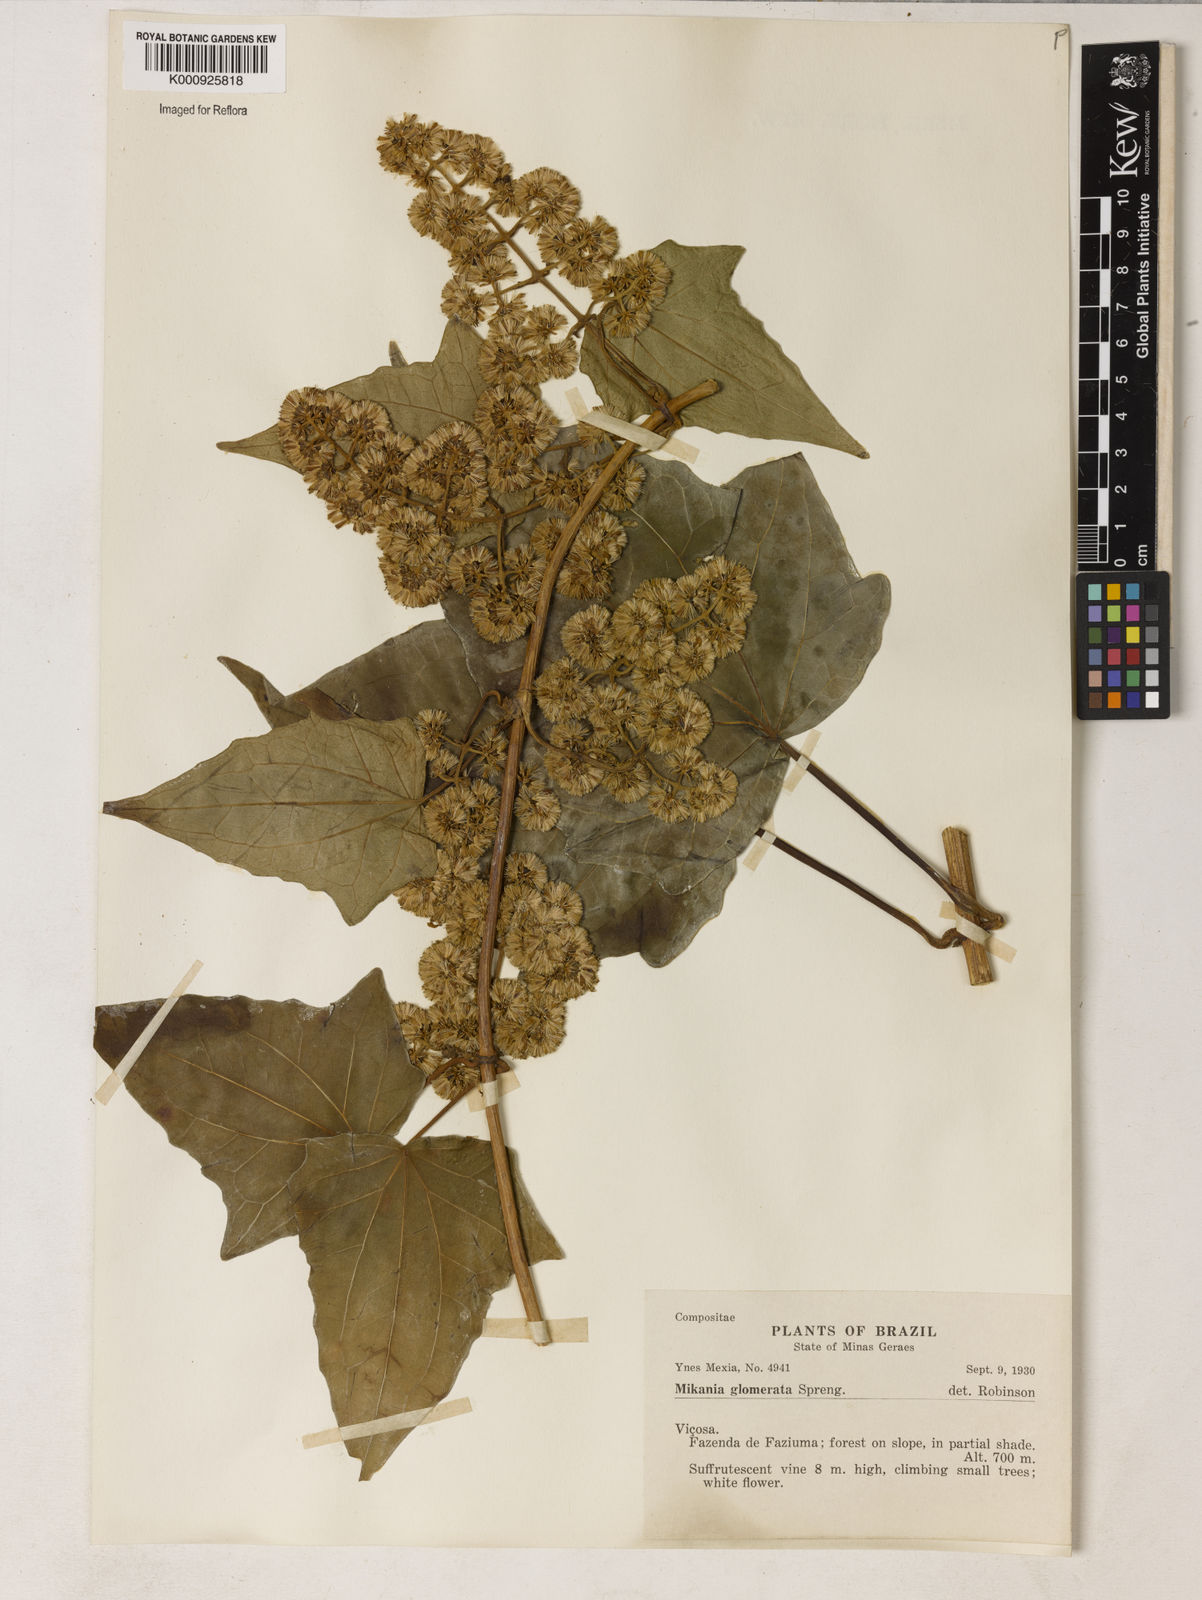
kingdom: Plantae
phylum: Tracheophyta
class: Magnoliopsida
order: Asterales
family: Asteraceae
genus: Mikania
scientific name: Mikania glomerata
